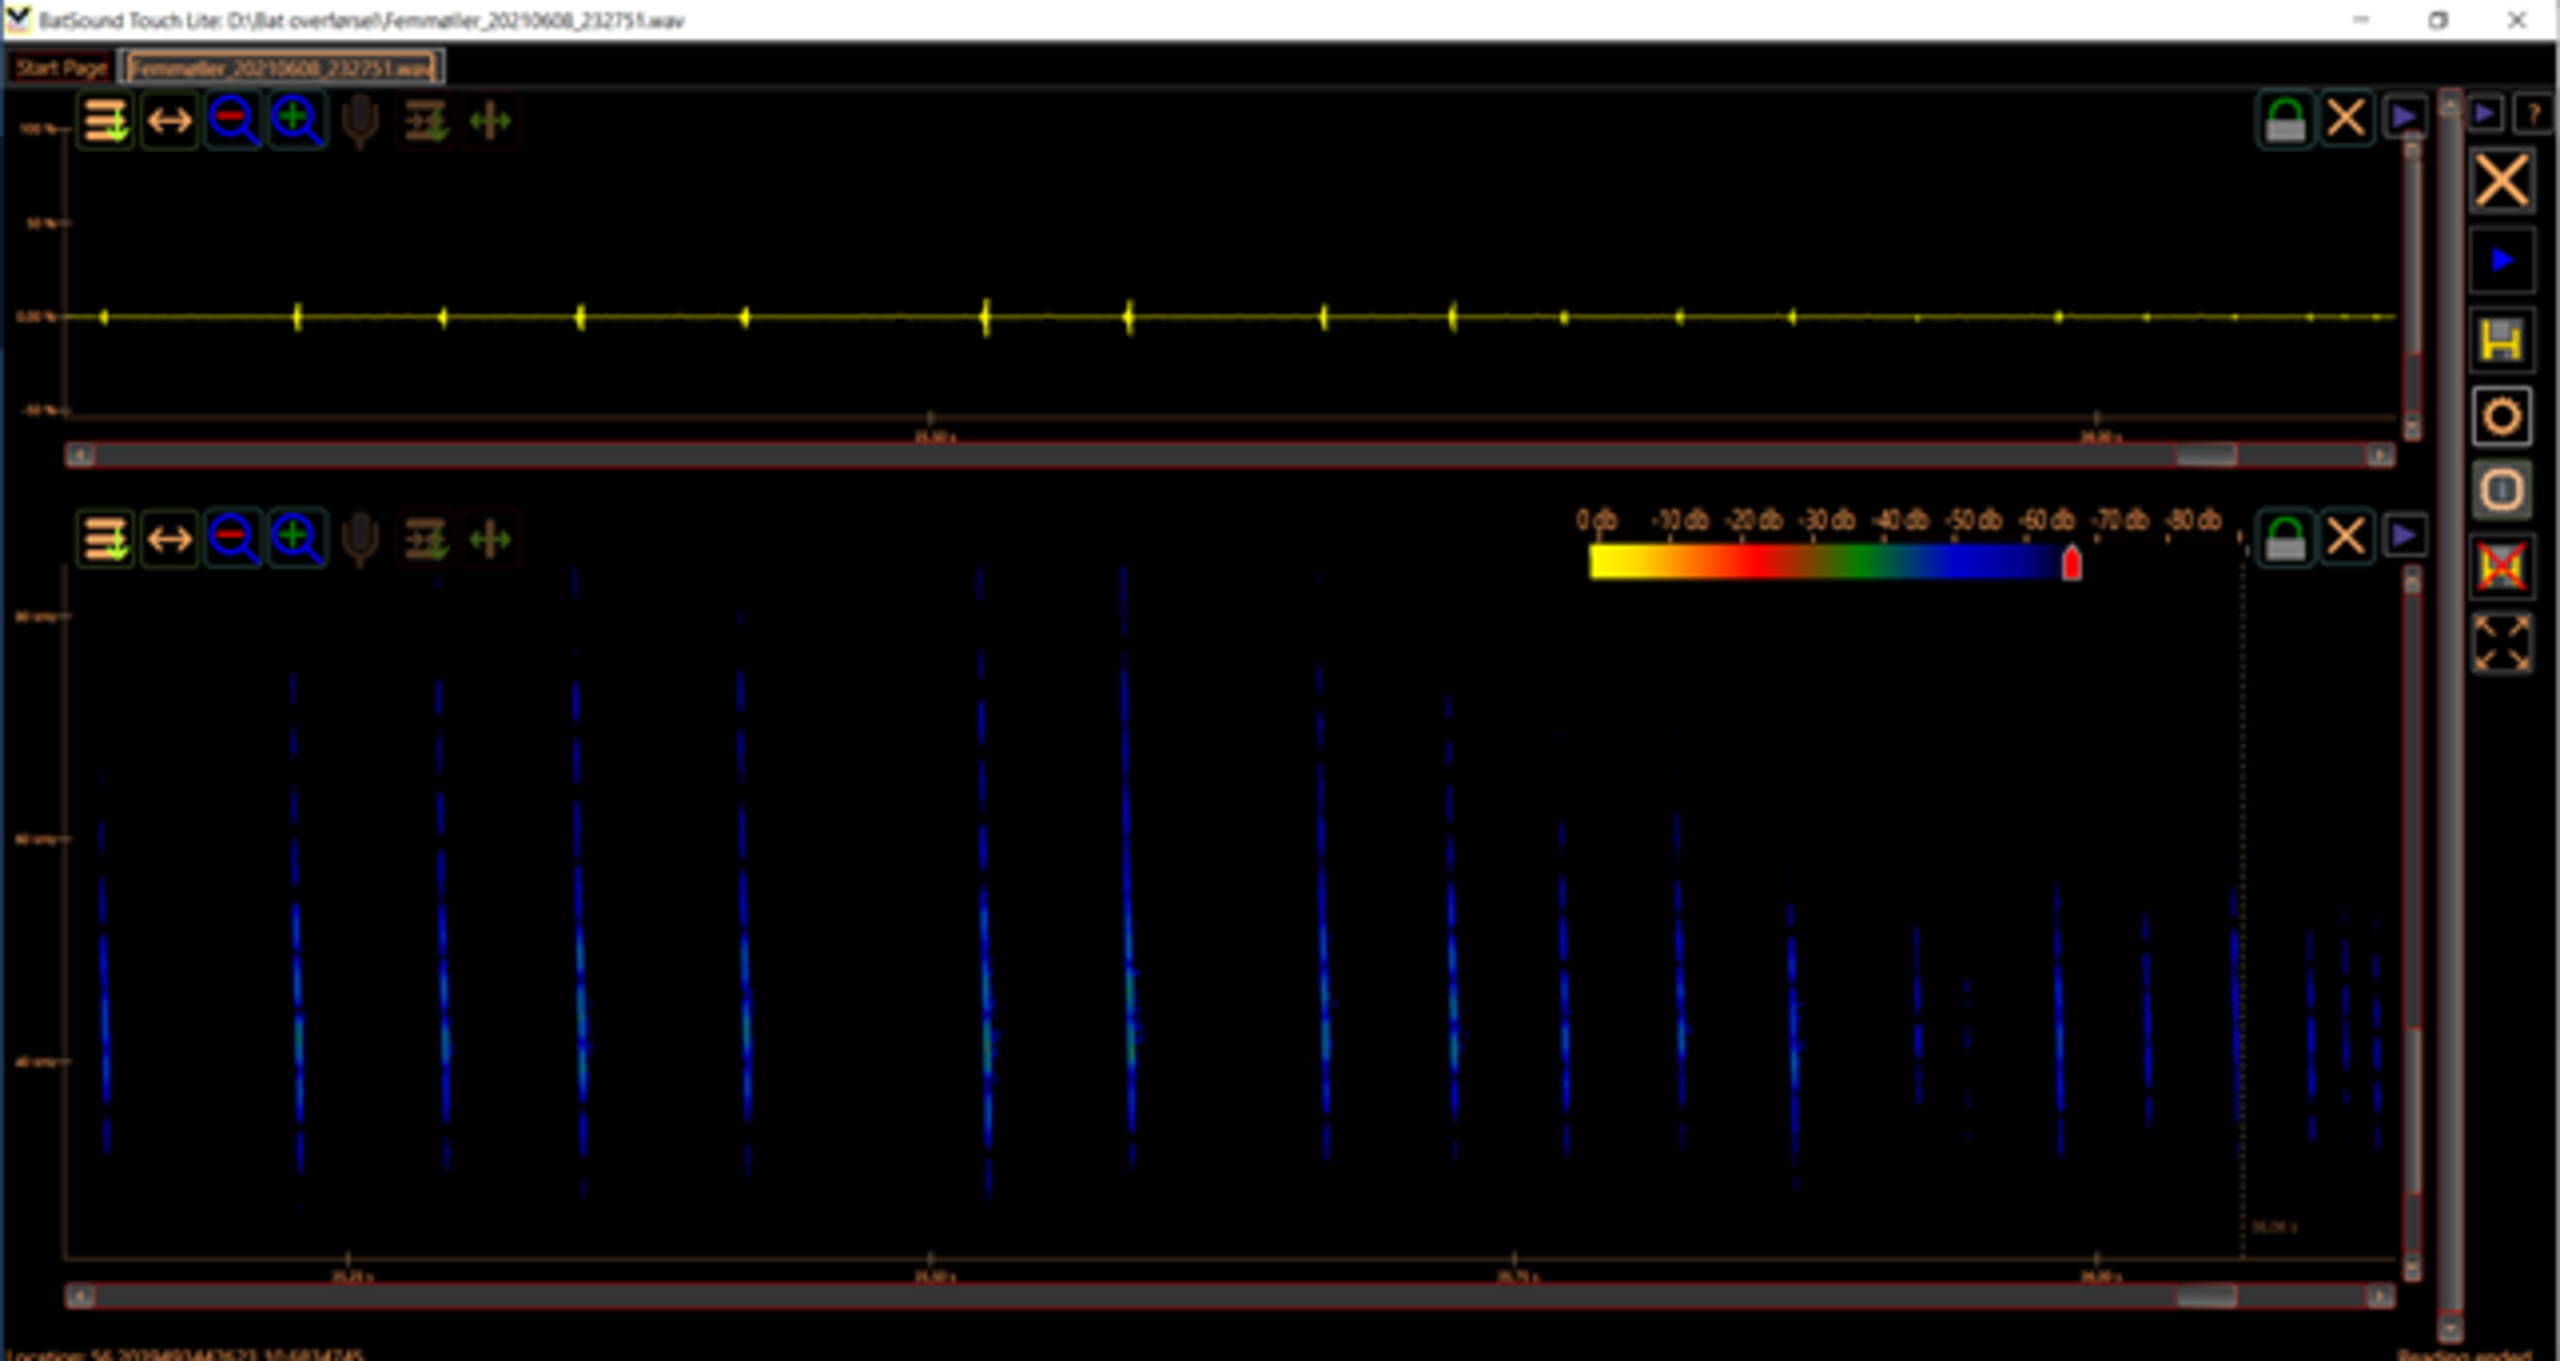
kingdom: Animalia
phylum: Chordata
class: Mammalia
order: Chiroptera
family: Vespertilionidae
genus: Myotis
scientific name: Myotis daubentonii
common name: Vandflagermus
